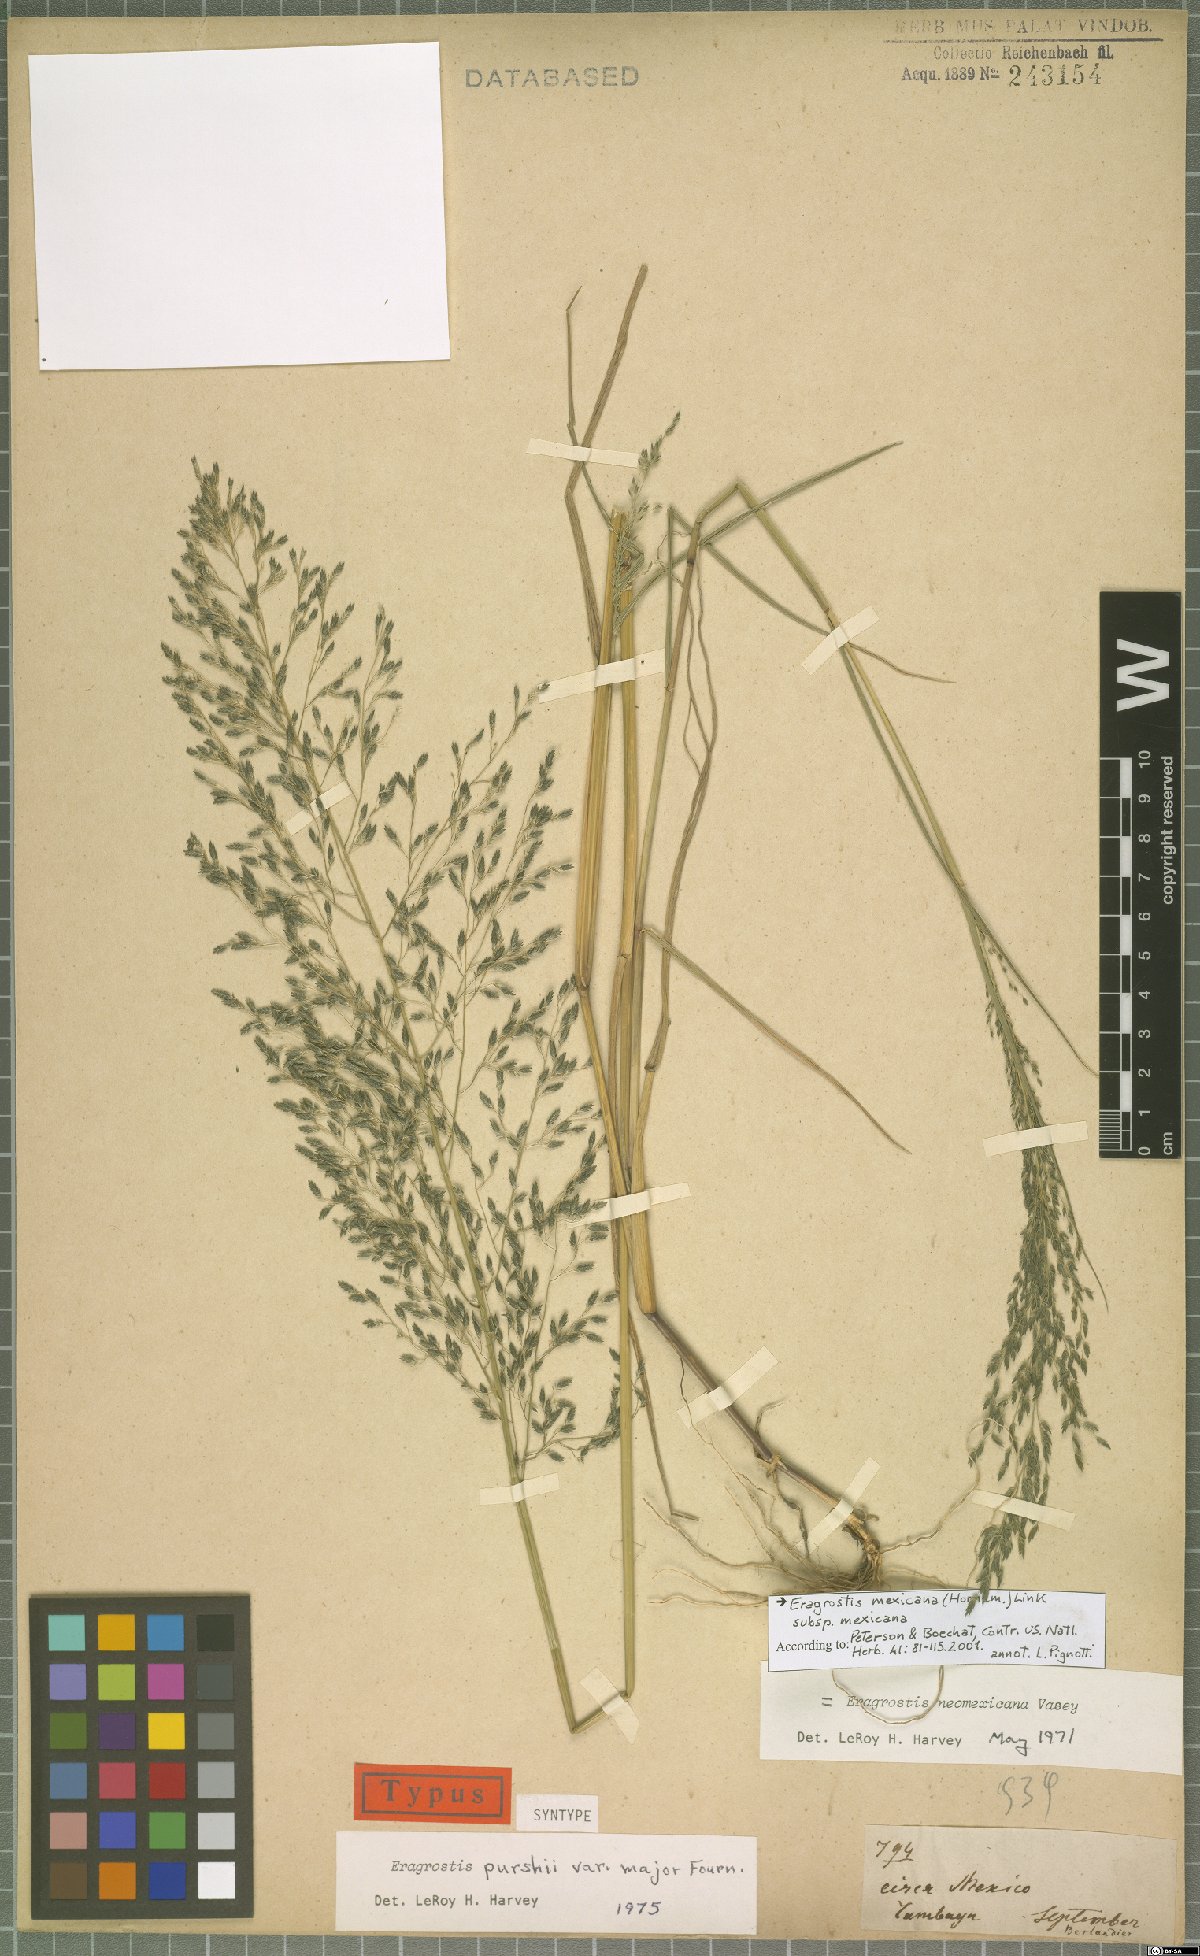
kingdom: Plantae
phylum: Tracheophyta
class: Liliopsida
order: Poales
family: Poaceae
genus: Eragrostis
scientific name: Eragrostis mexicana
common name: Mexican love grass
